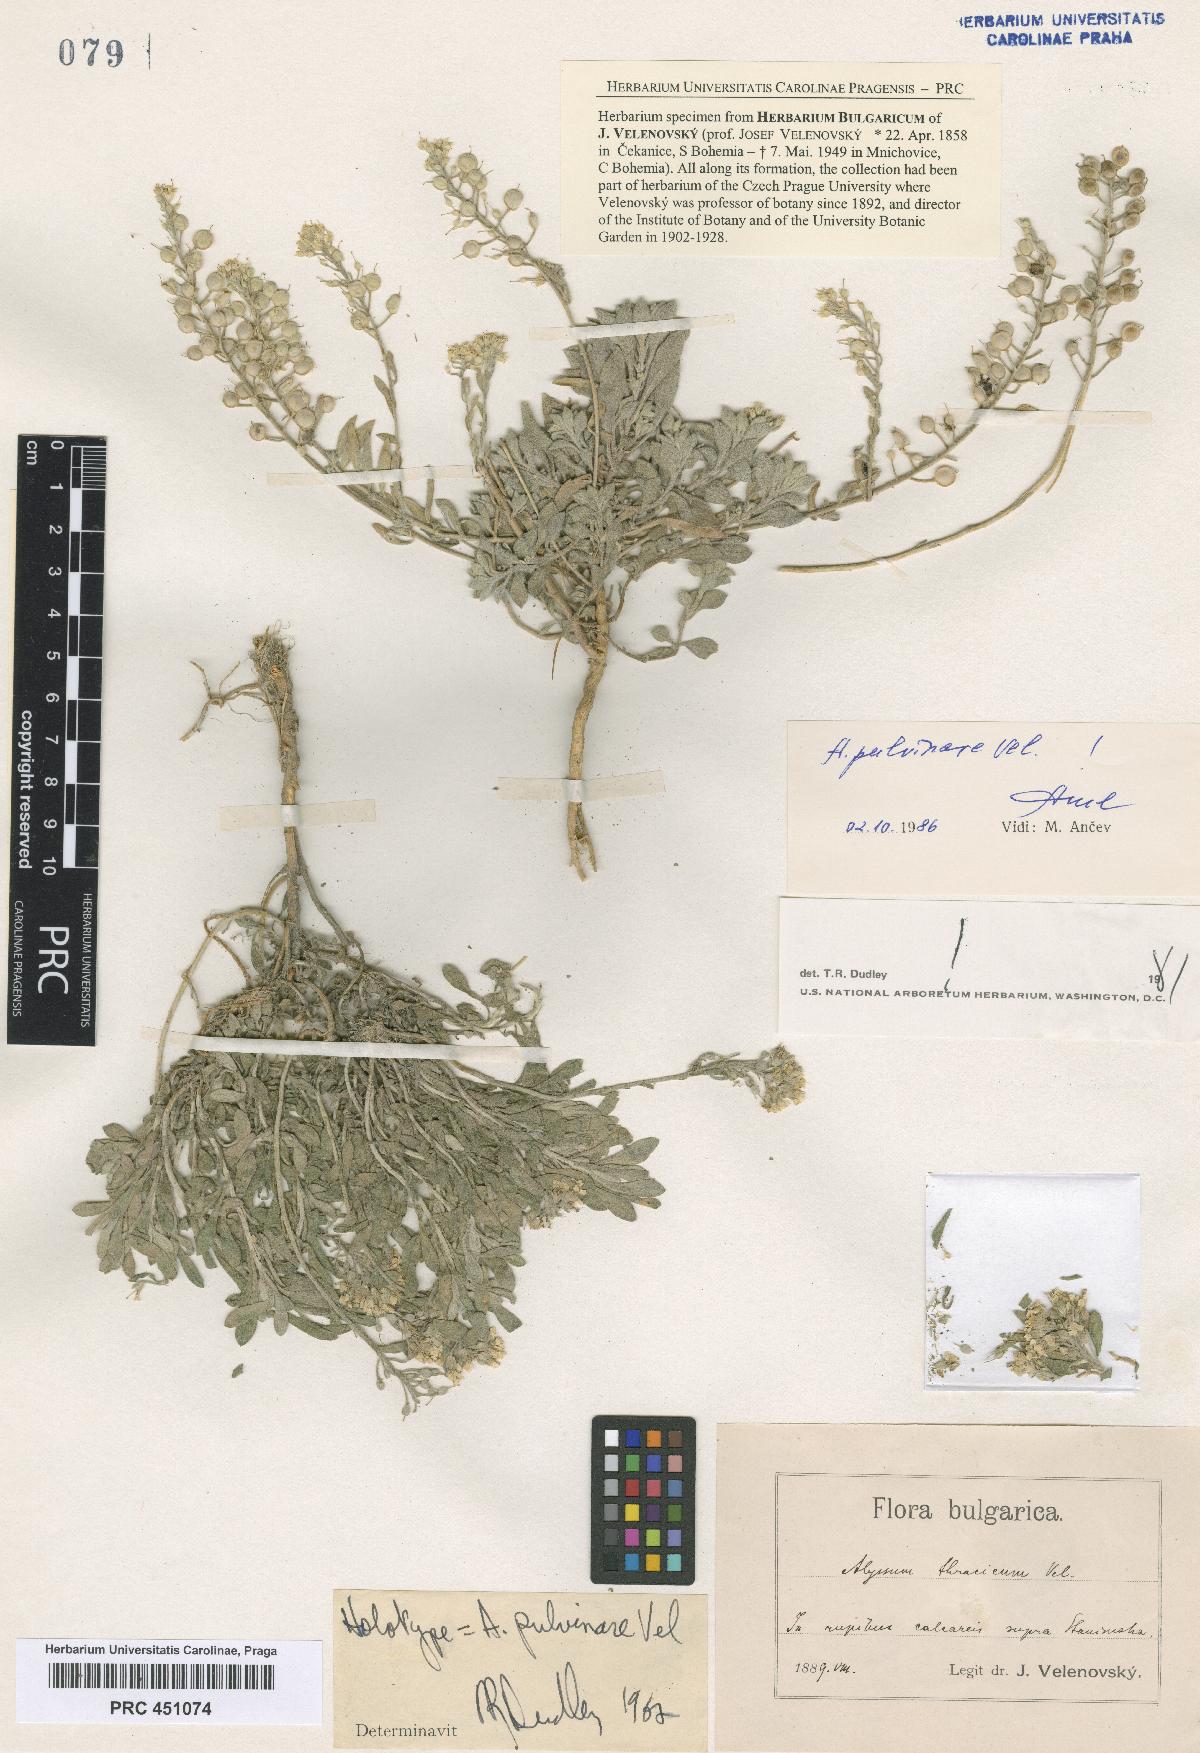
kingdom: Plantae
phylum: Tracheophyta
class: Magnoliopsida
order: Brassicales
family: Brassicaceae
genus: Alyssum
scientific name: Alyssum pulvinare
